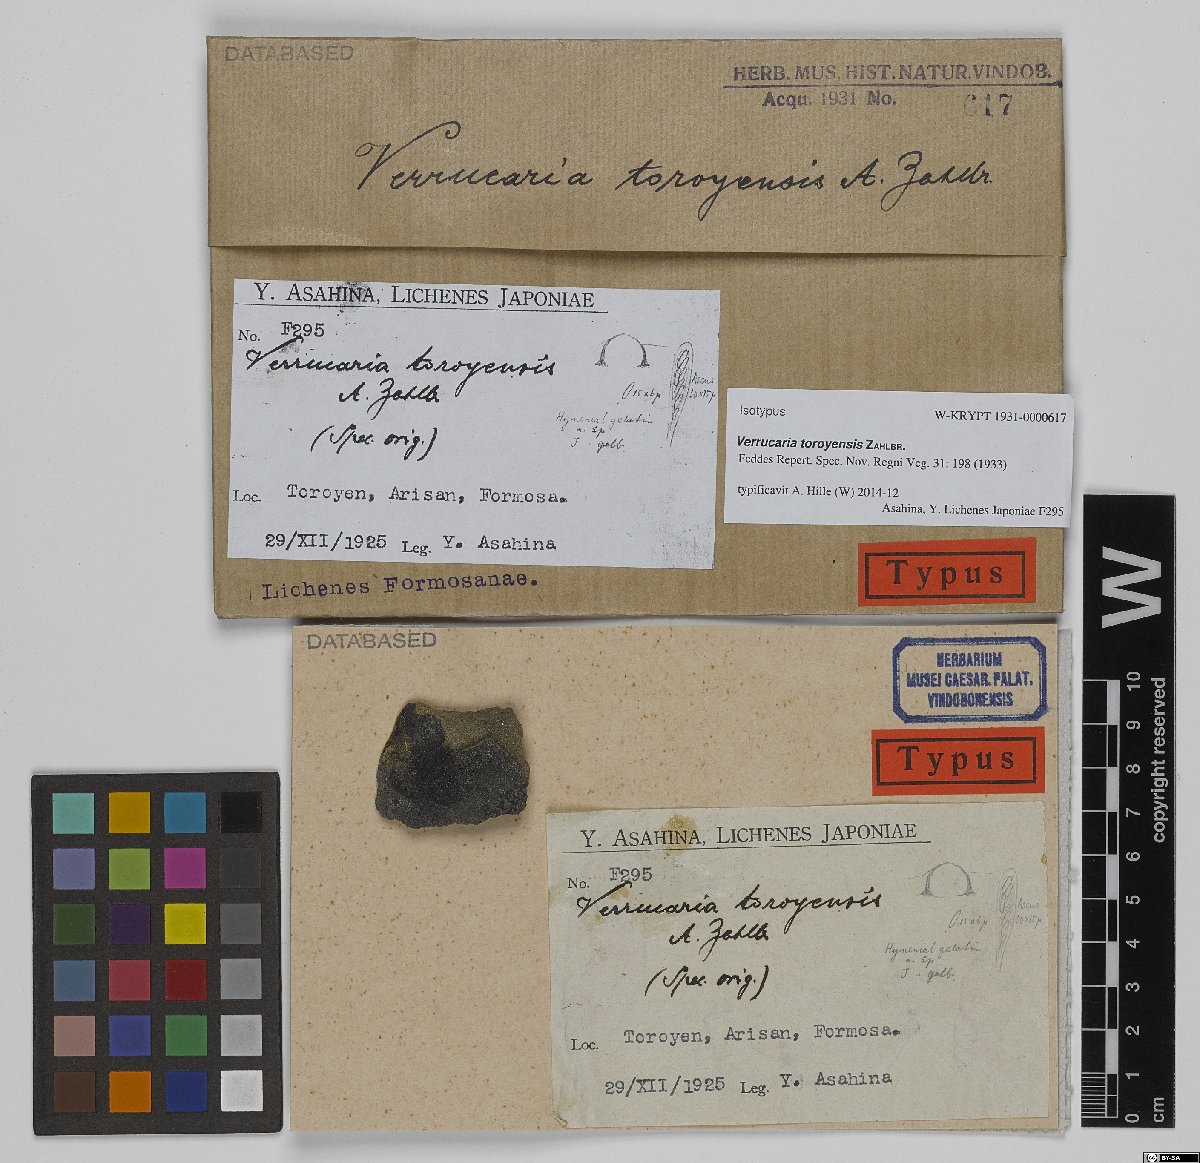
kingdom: Fungi
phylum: Ascomycota
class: Eurotiomycetes
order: Verrucariales
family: Verrucariaceae
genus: Verrucaria
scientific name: Verrucaria toroyensis
